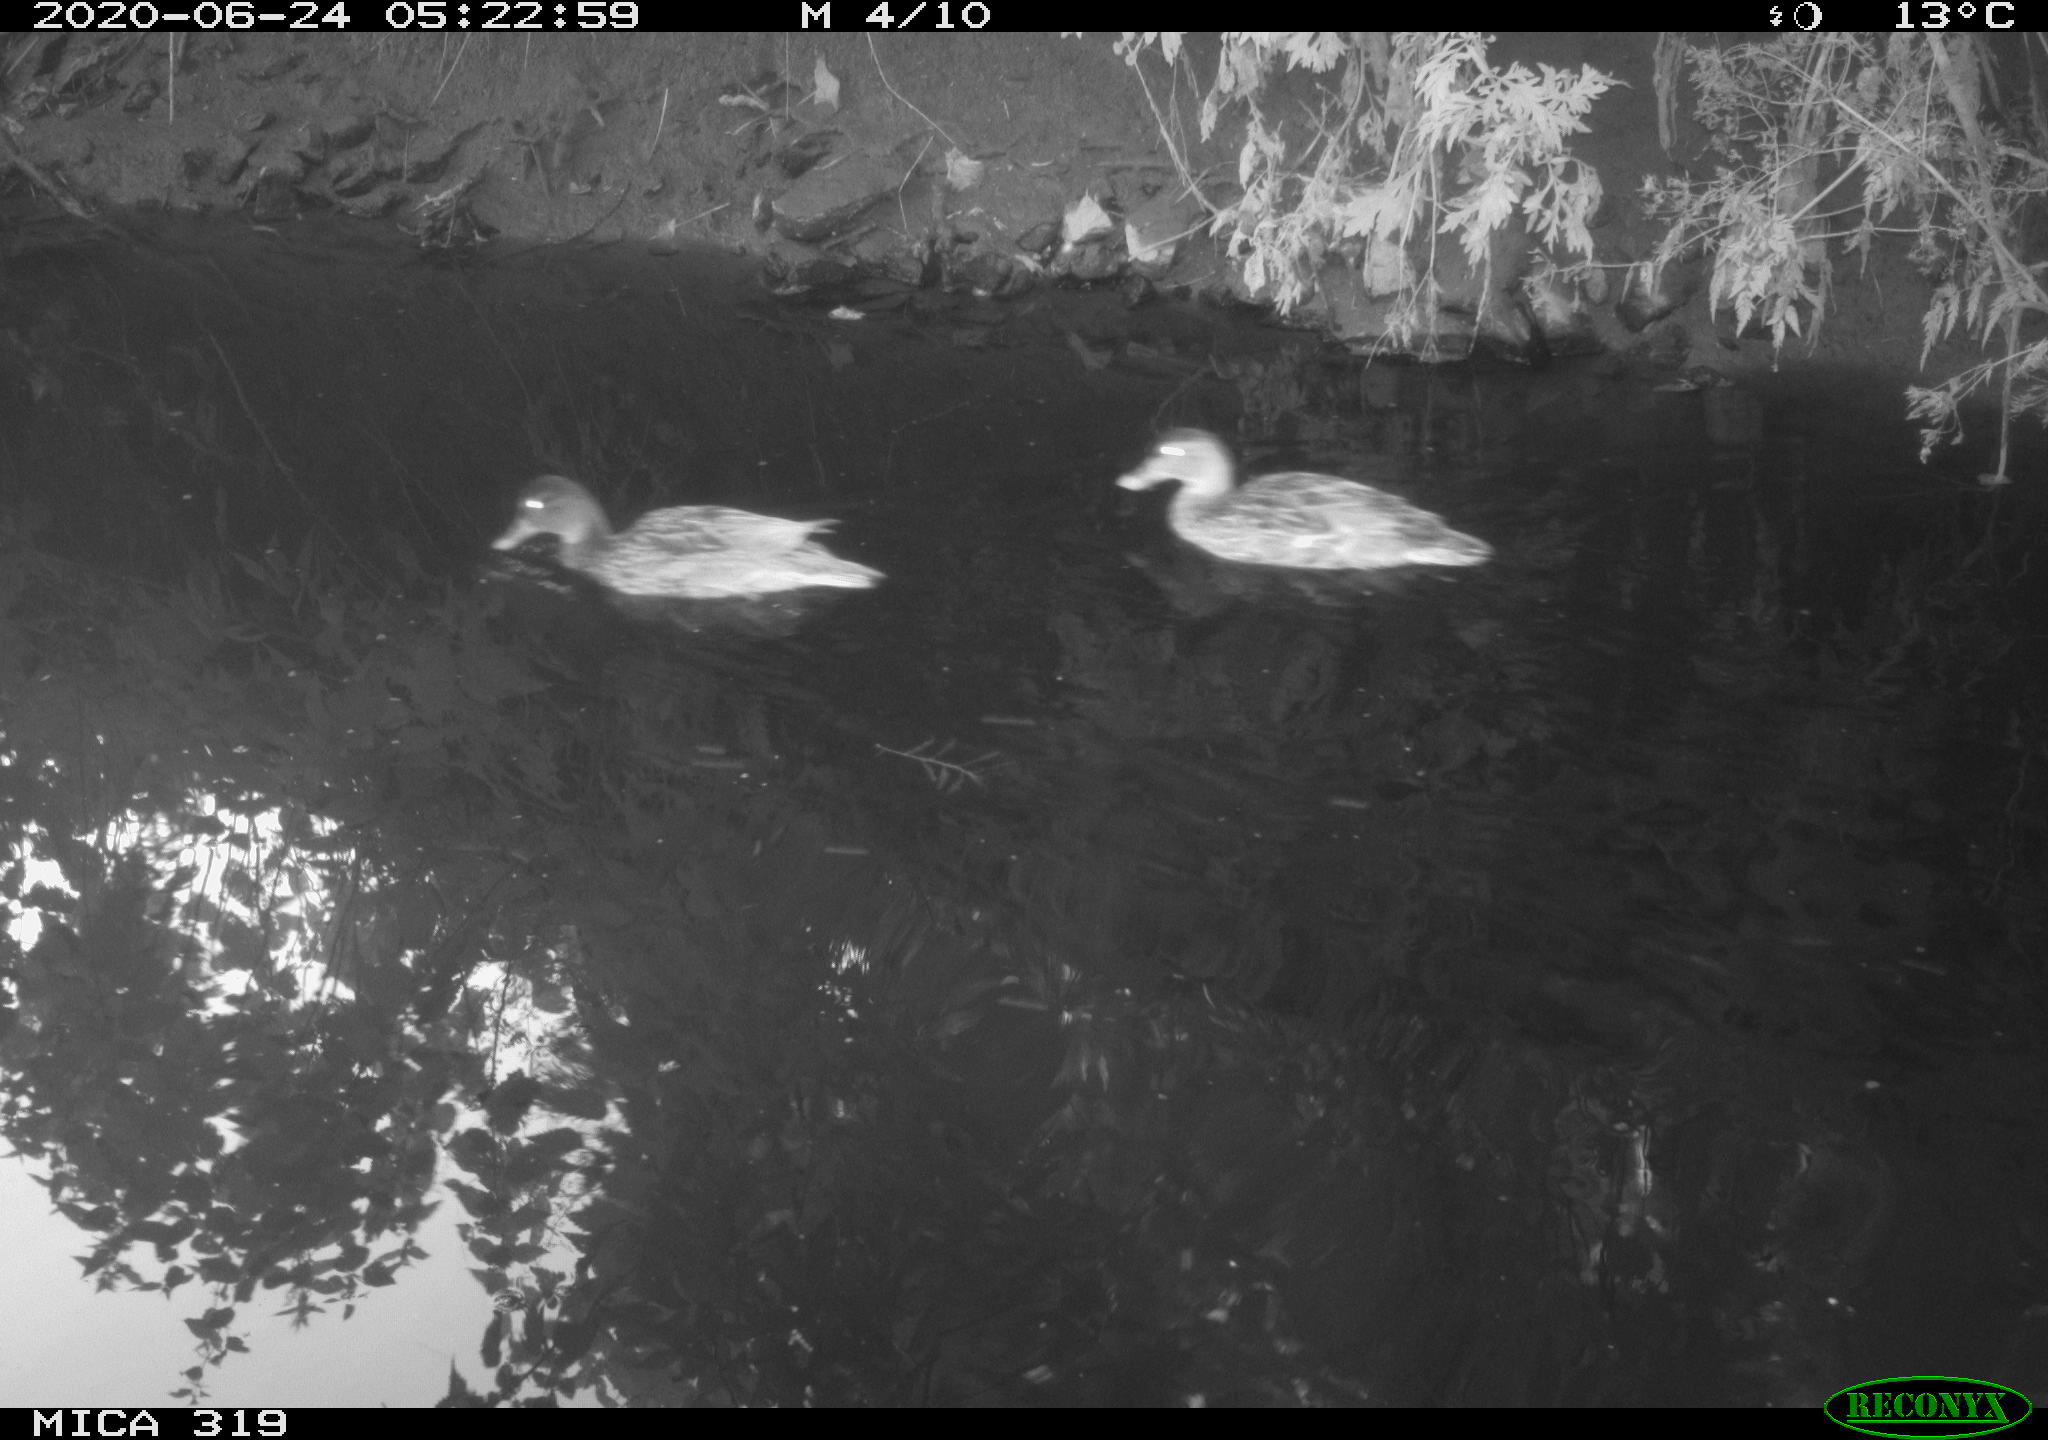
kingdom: Animalia
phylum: Chordata
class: Aves
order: Anseriformes
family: Anatidae
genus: Anas
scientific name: Anas platyrhynchos
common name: Mallard
